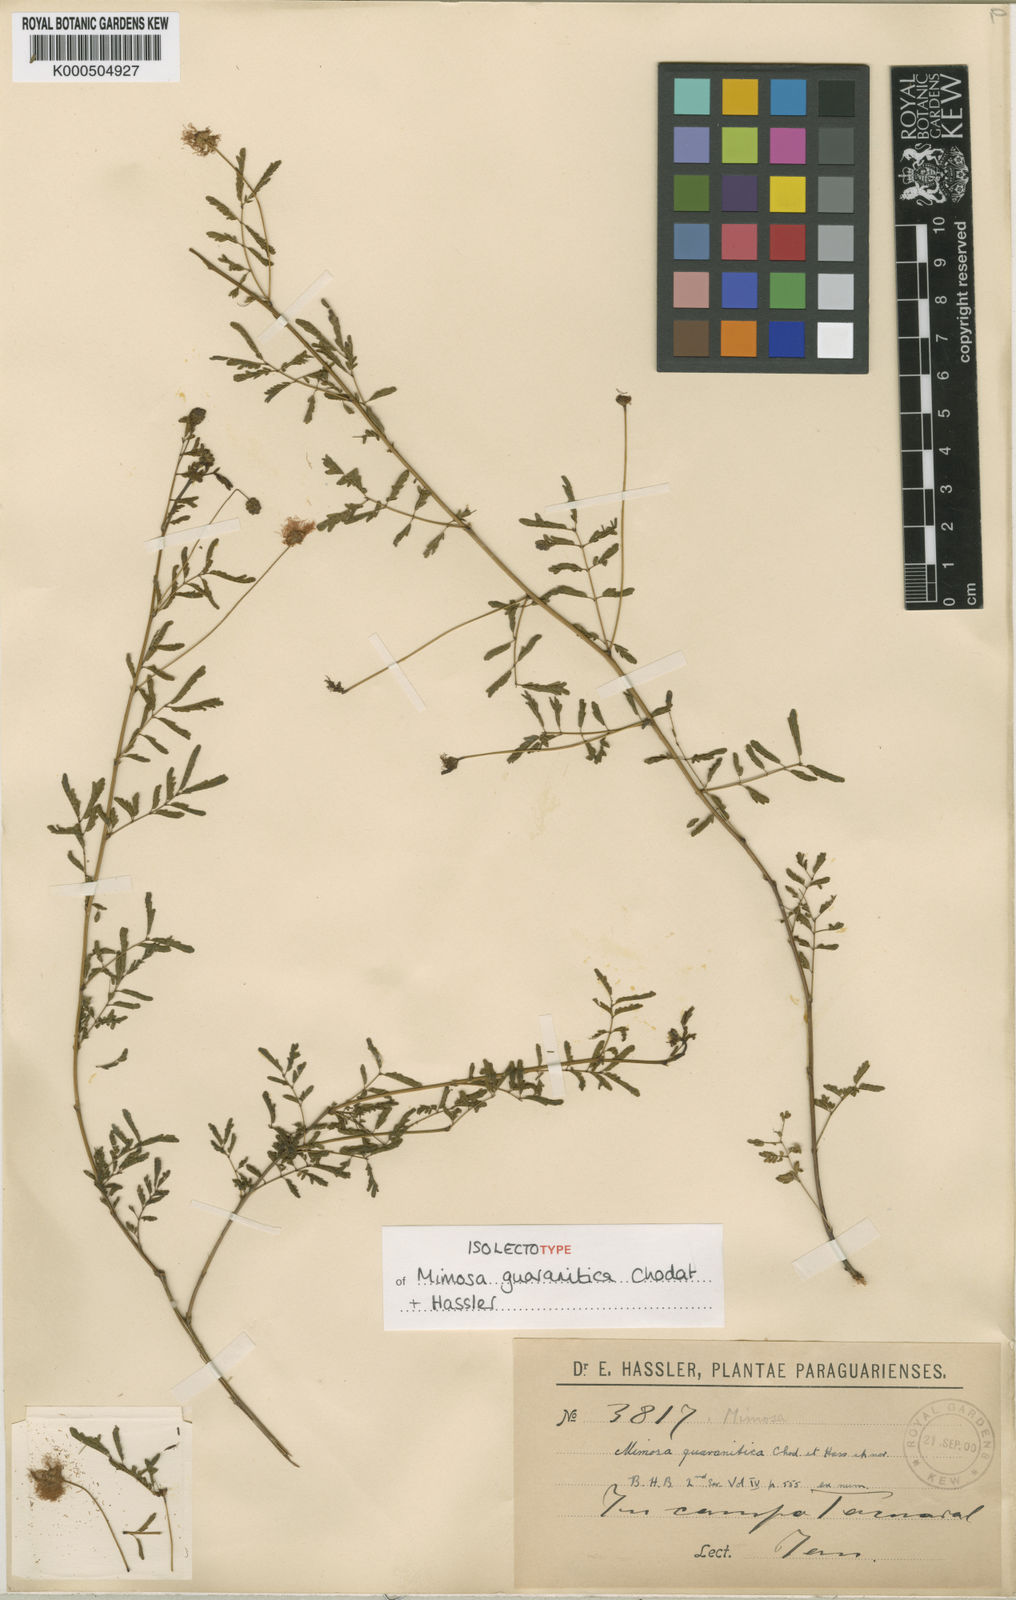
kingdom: Plantae
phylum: Tracheophyta
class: Magnoliopsida
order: Fabales
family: Fabaceae
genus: Mimosa
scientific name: Mimosa guaranitica
